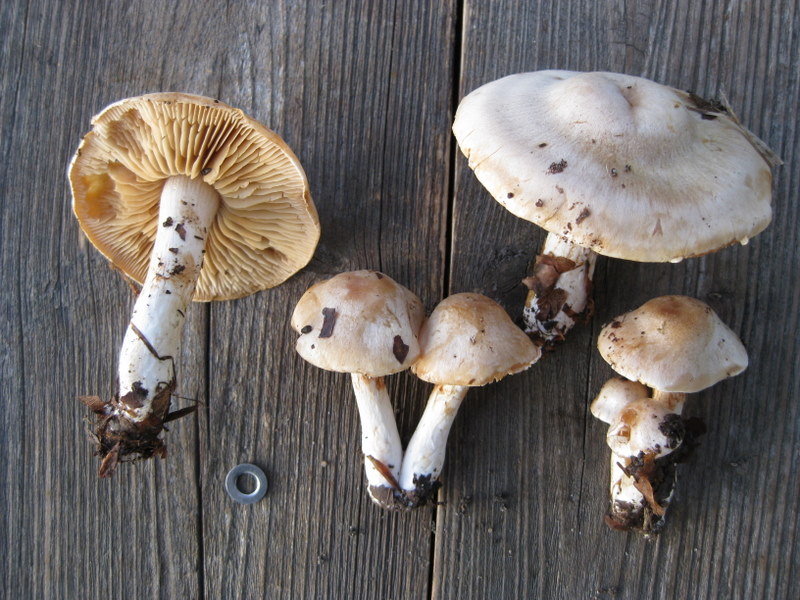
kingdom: Fungi
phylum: Basidiomycota
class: Agaricomycetes
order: Agaricales
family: Cortinariaceae
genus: Thaxterogaster
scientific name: Thaxterogaster barbatus
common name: elfenbens-slørhat
